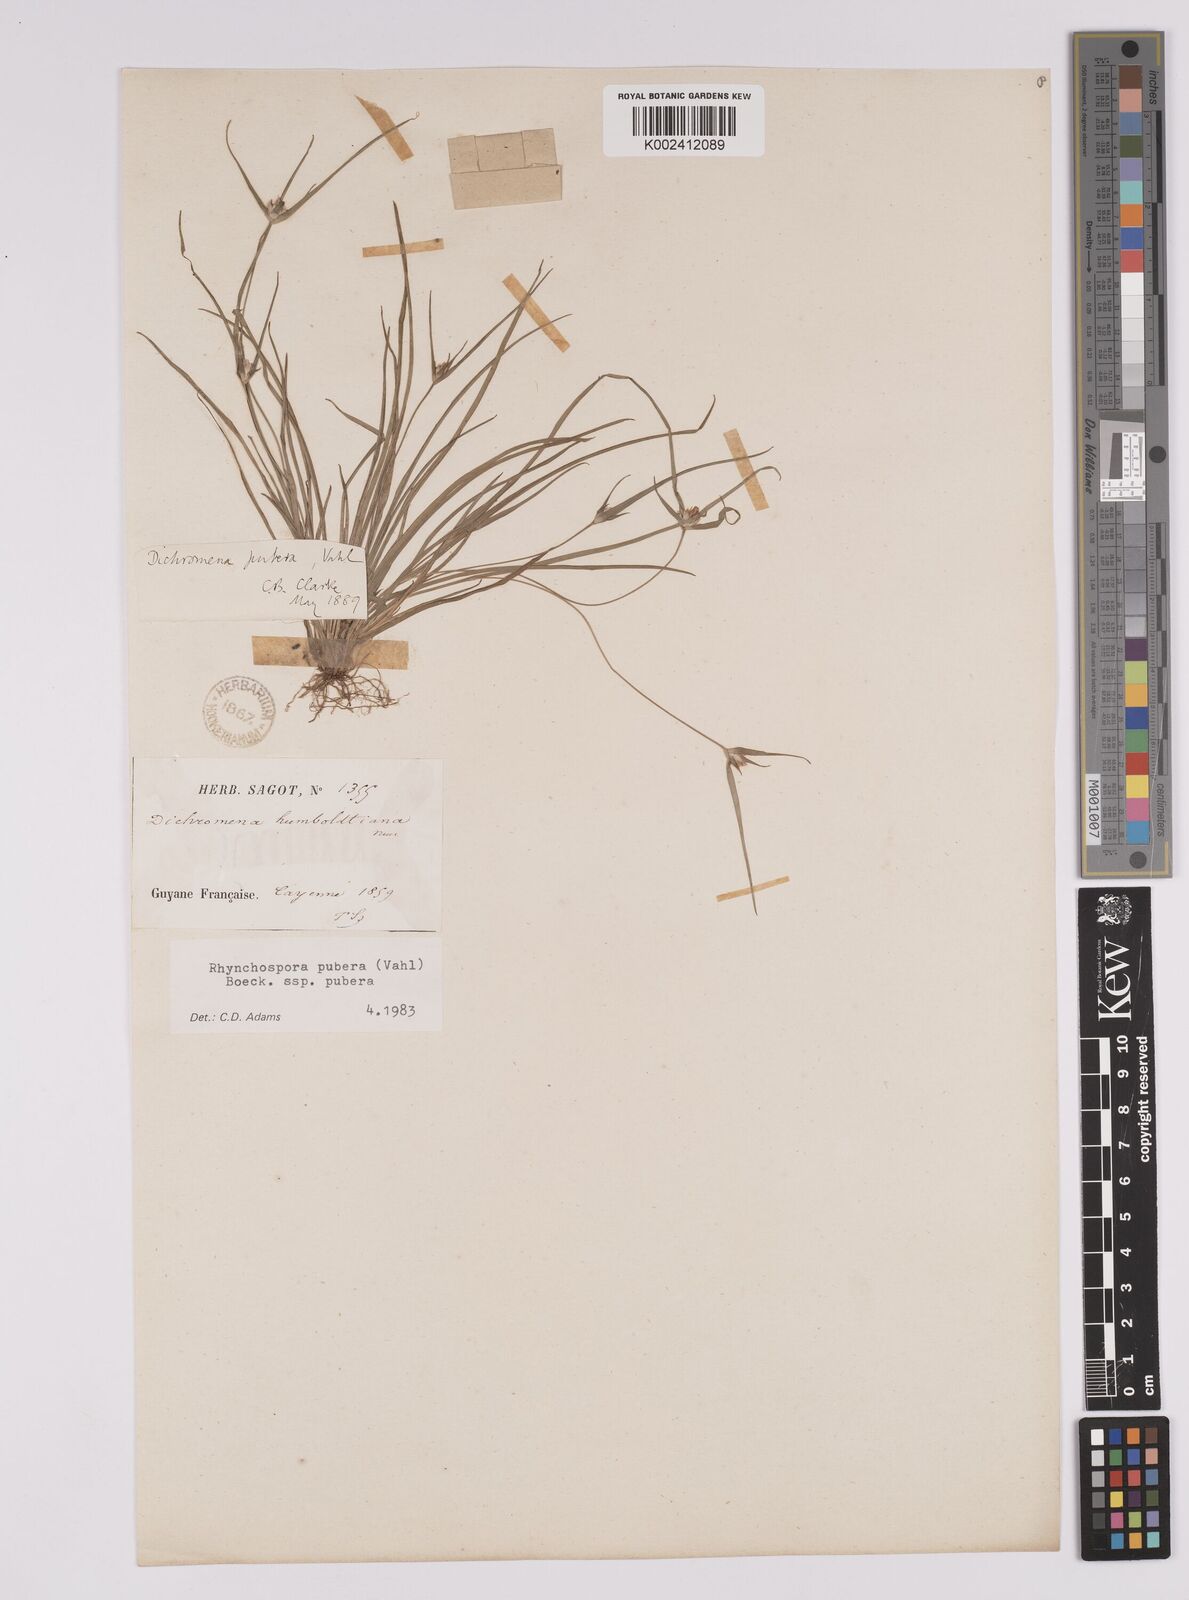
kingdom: Plantae
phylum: Tracheophyta
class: Liliopsida
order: Poales
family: Cyperaceae
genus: Rhynchospora
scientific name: Rhynchospora pubera
